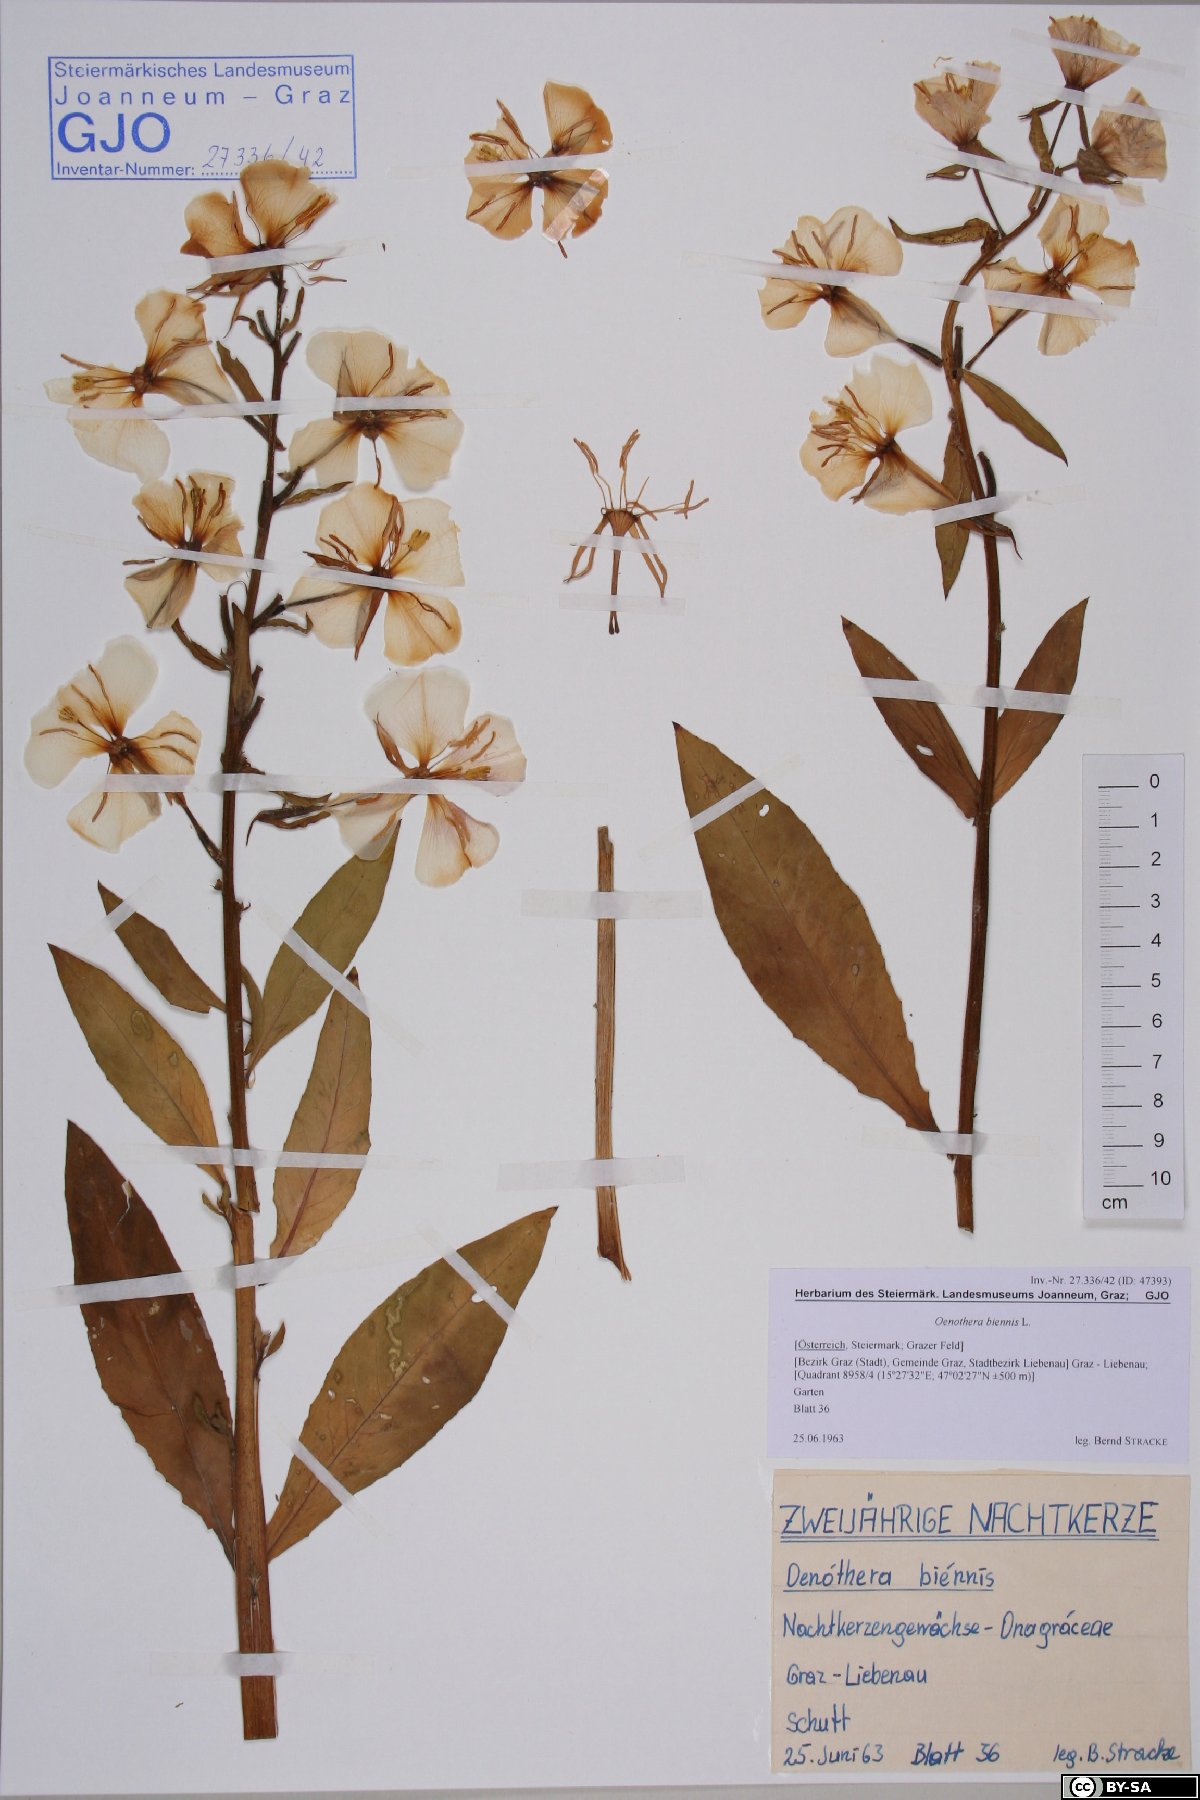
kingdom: Plantae
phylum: Tracheophyta
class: Magnoliopsida
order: Myrtales
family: Onagraceae
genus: Oenothera
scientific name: Oenothera biennis
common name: Common evening-primrose
